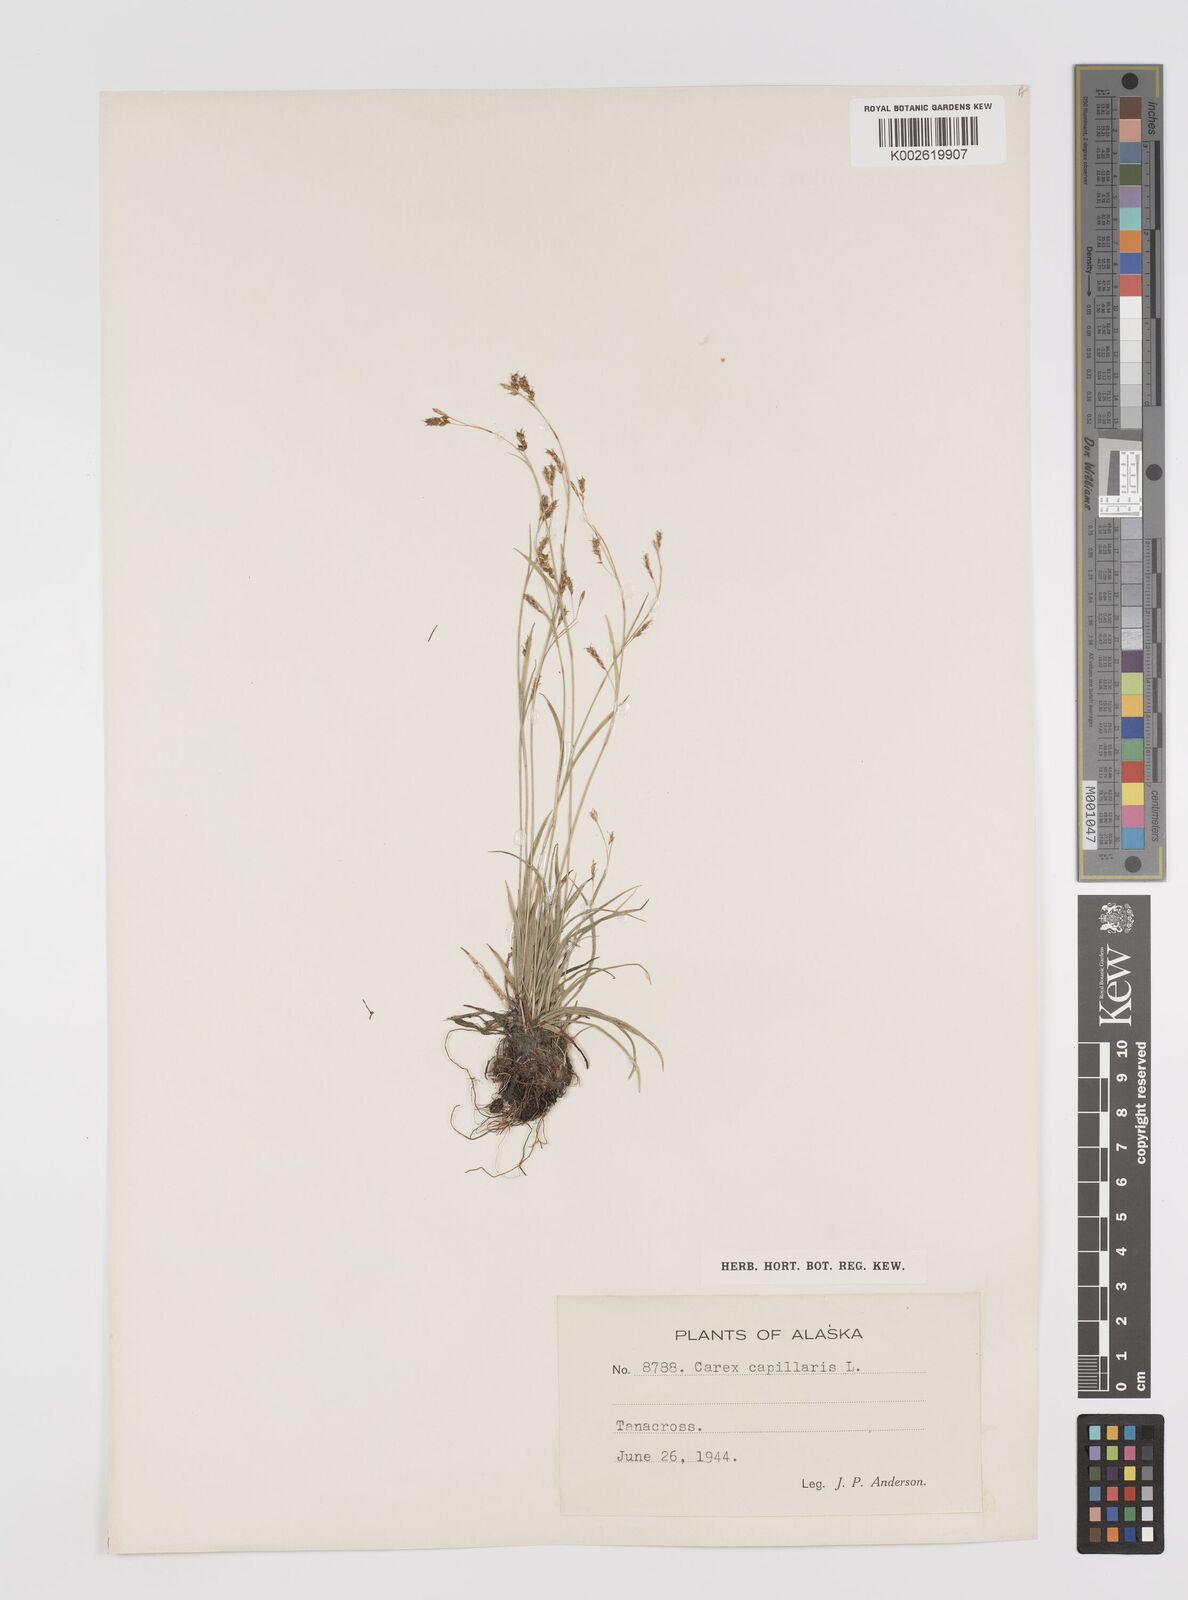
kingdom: Plantae
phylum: Tracheophyta
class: Liliopsida
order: Poales
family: Cyperaceae
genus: Carex
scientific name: Carex capillaris
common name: Hair sedge
